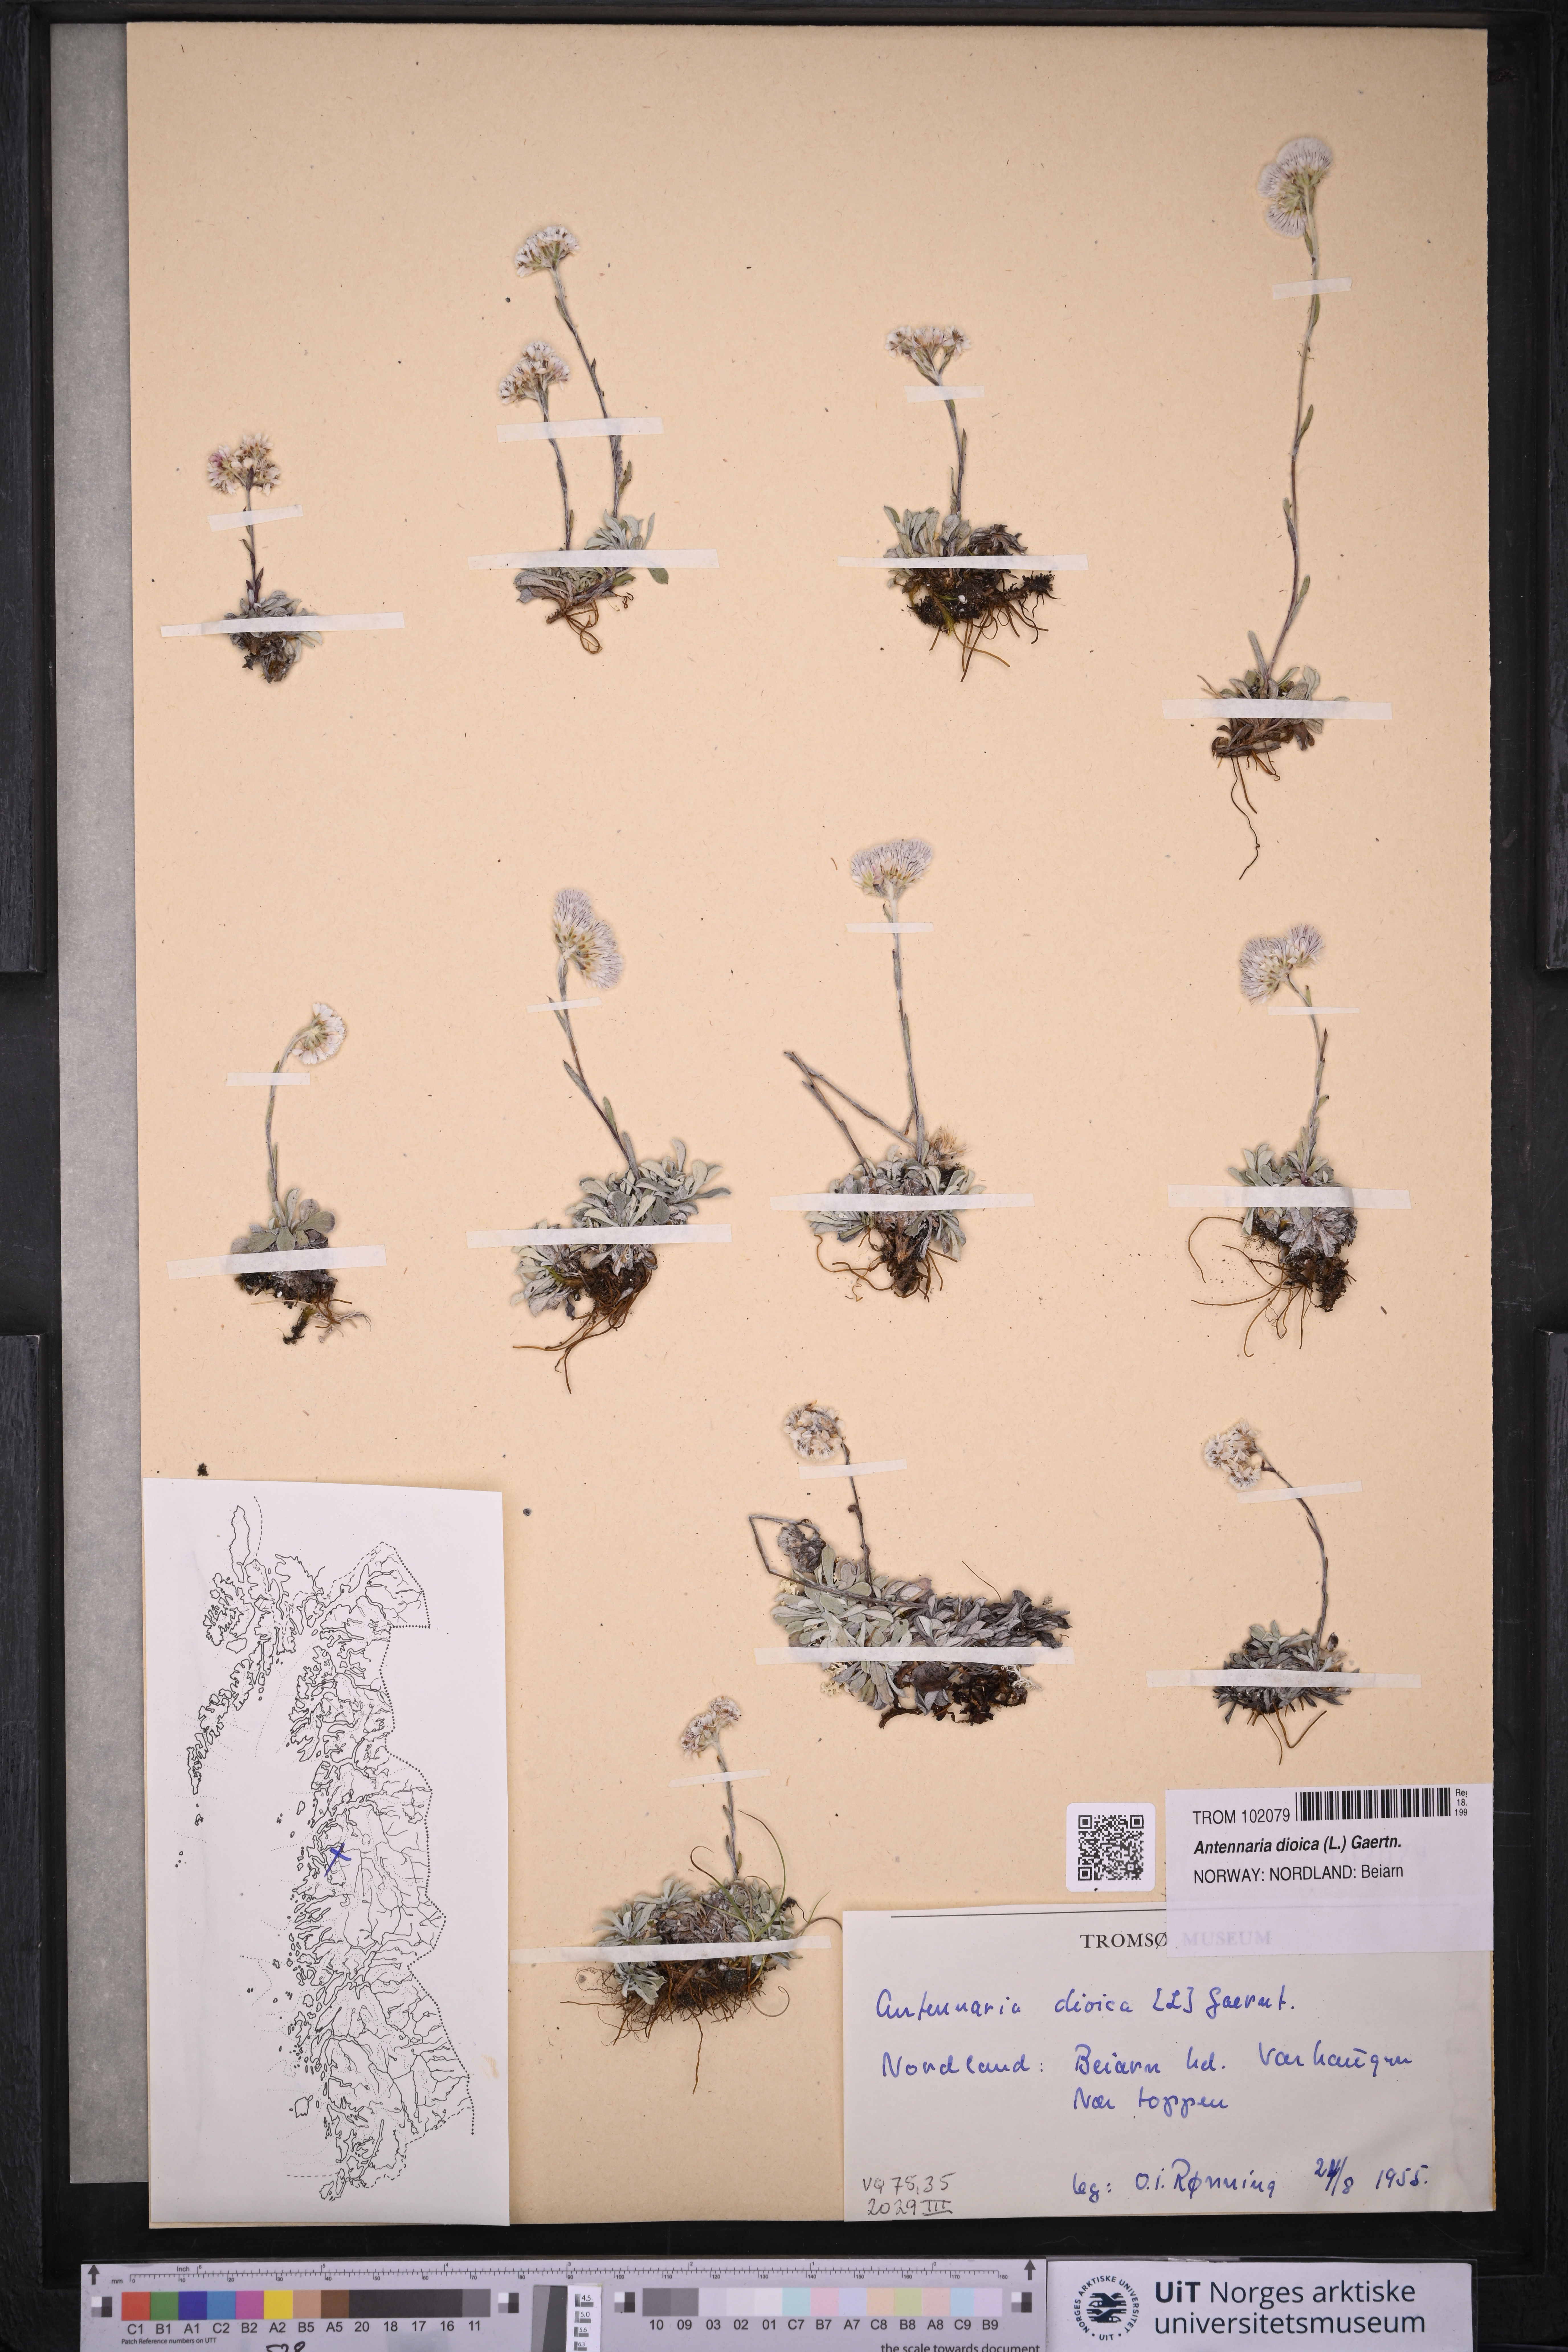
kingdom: Plantae
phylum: Tracheophyta
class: Magnoliopsida
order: Asterales
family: Asteraceae
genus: Antennaria
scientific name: Antennaria dioica
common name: Mountain everlasting
